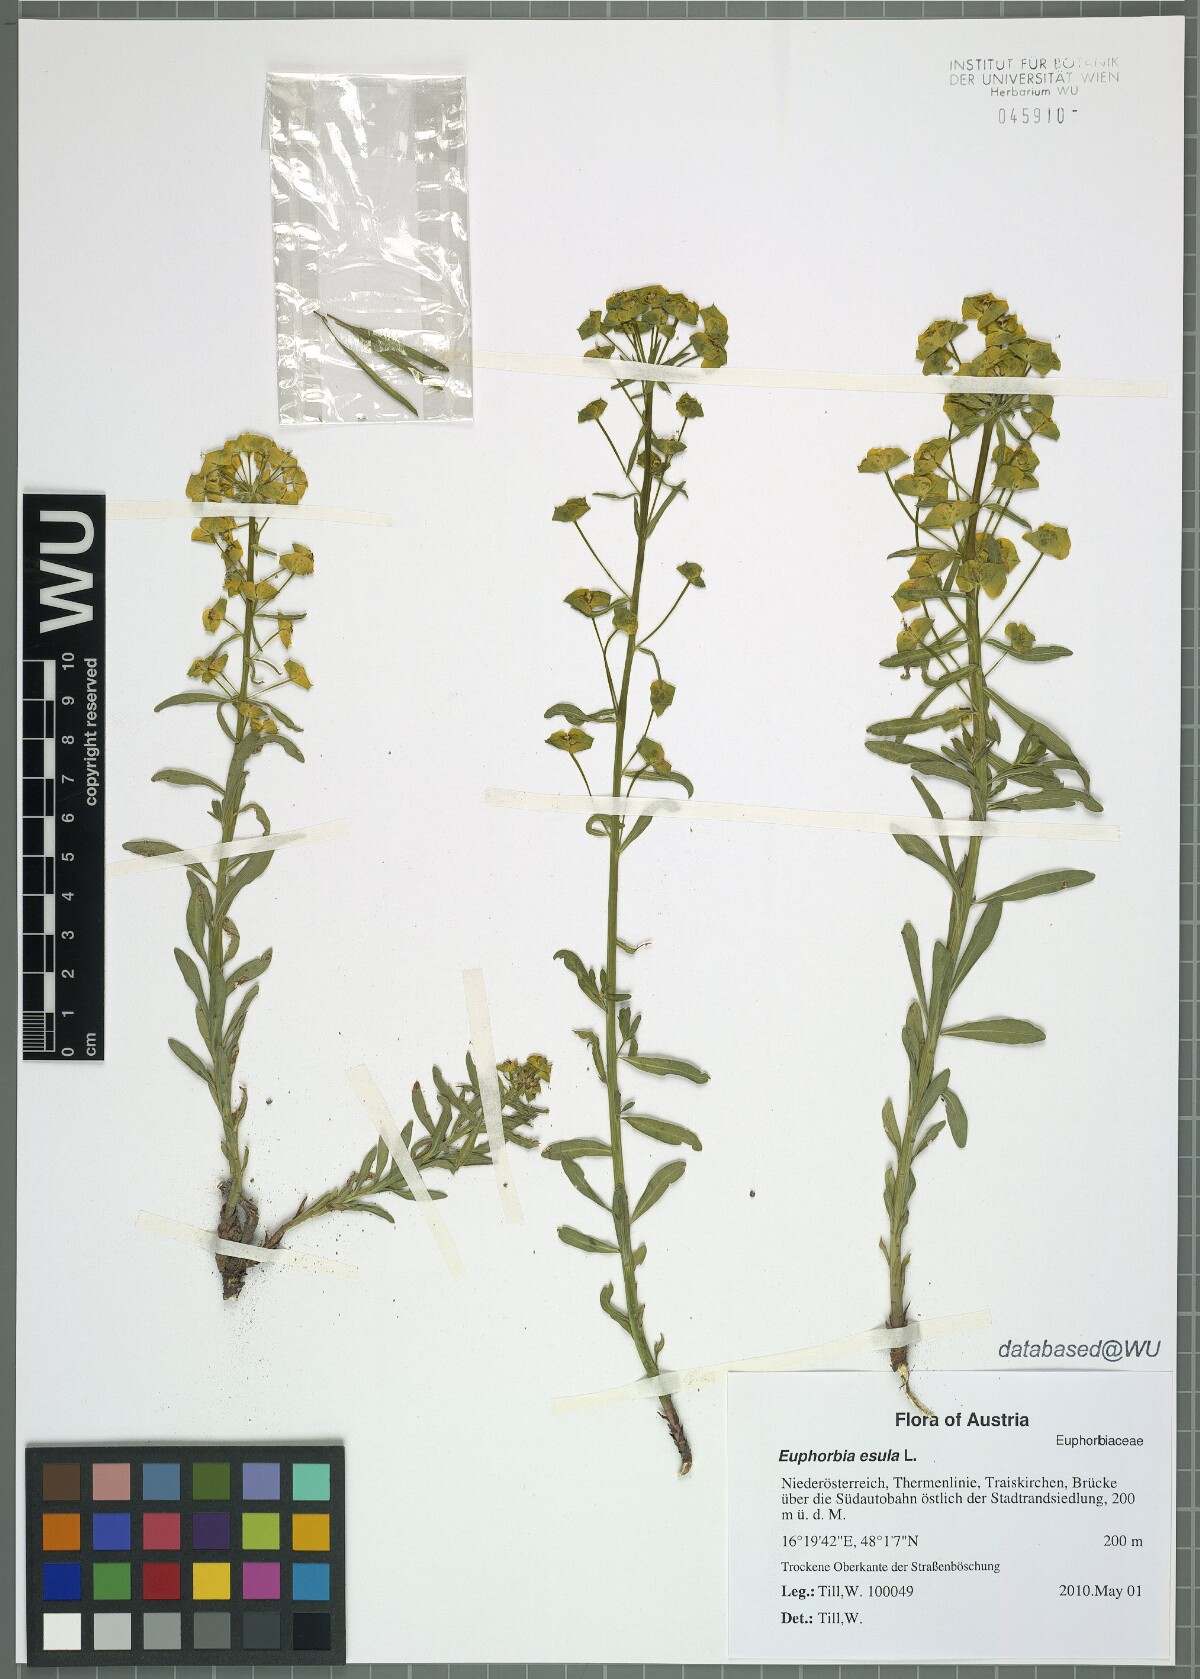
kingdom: Plantae
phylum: Tracheophyta
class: Magnoliopsida
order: Malpighiales
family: Euphorbiaceae
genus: Euphorbia
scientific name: Euphorbia esula
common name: Leafy spurge
